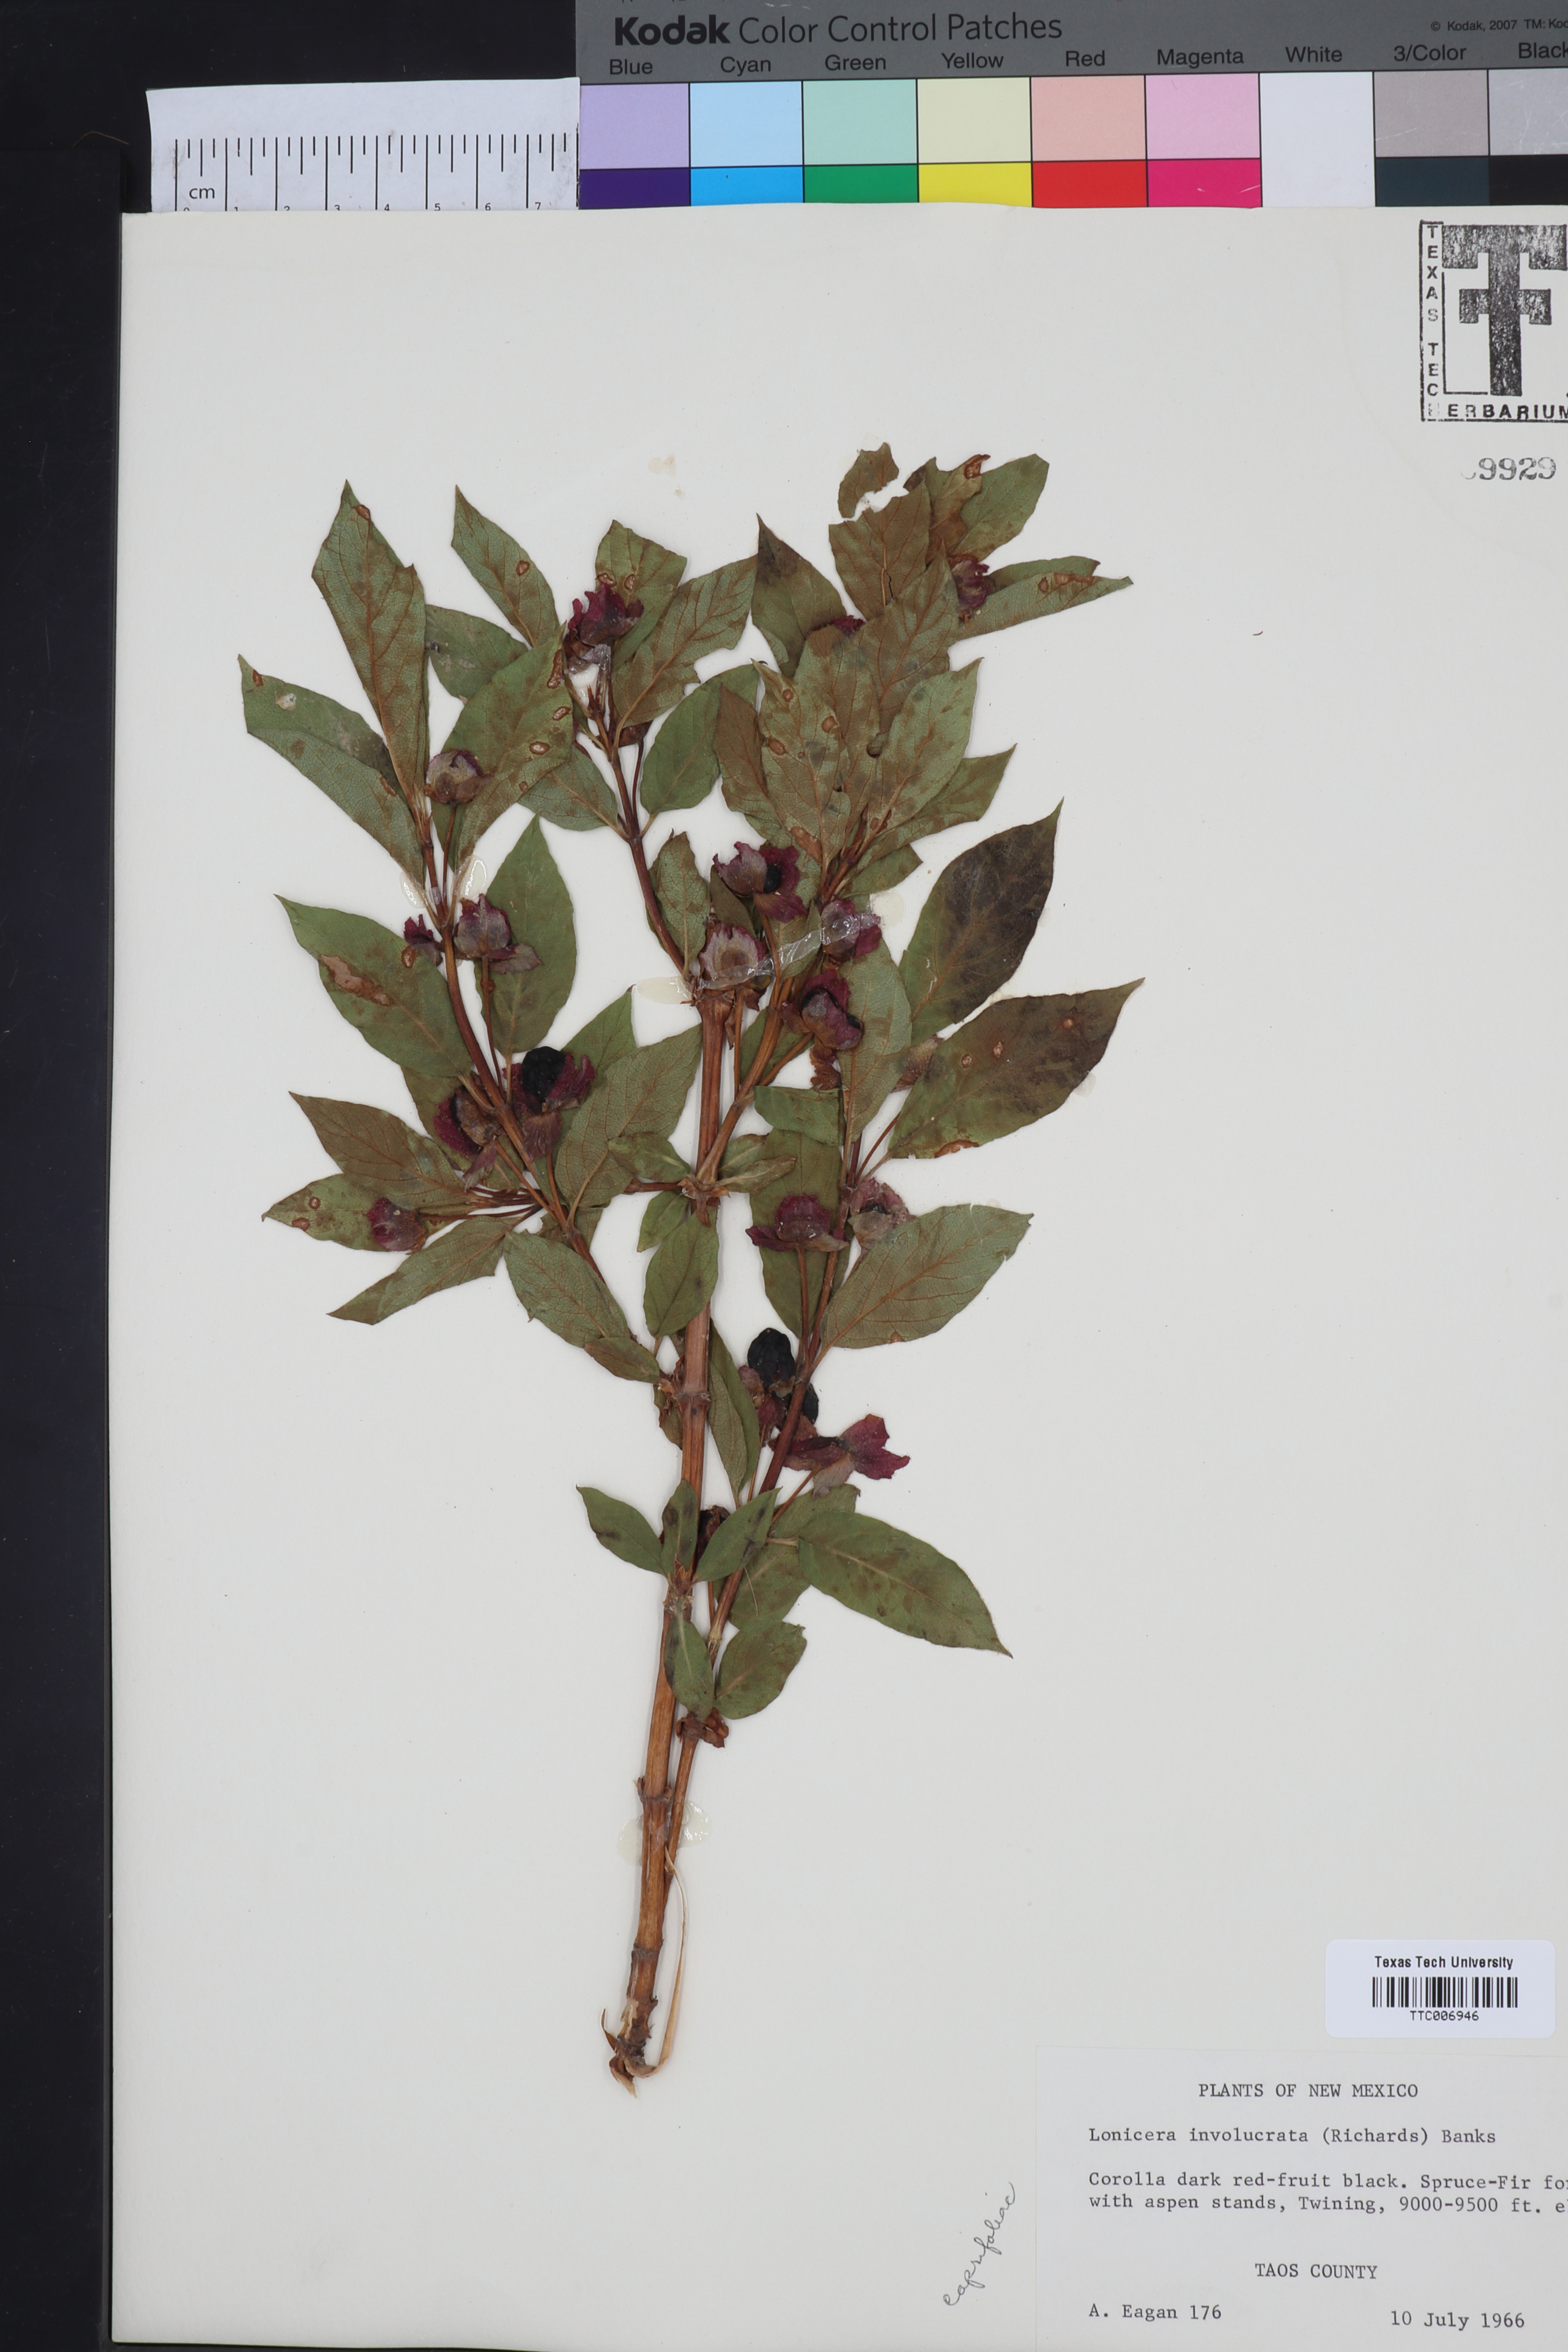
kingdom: Plantae
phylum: Tracheophyta
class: Magnoliopsida
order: Dipsacales
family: Caprifoliaceae
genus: Lonicera
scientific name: Lonicera involucrata
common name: Californian honeysuckle
